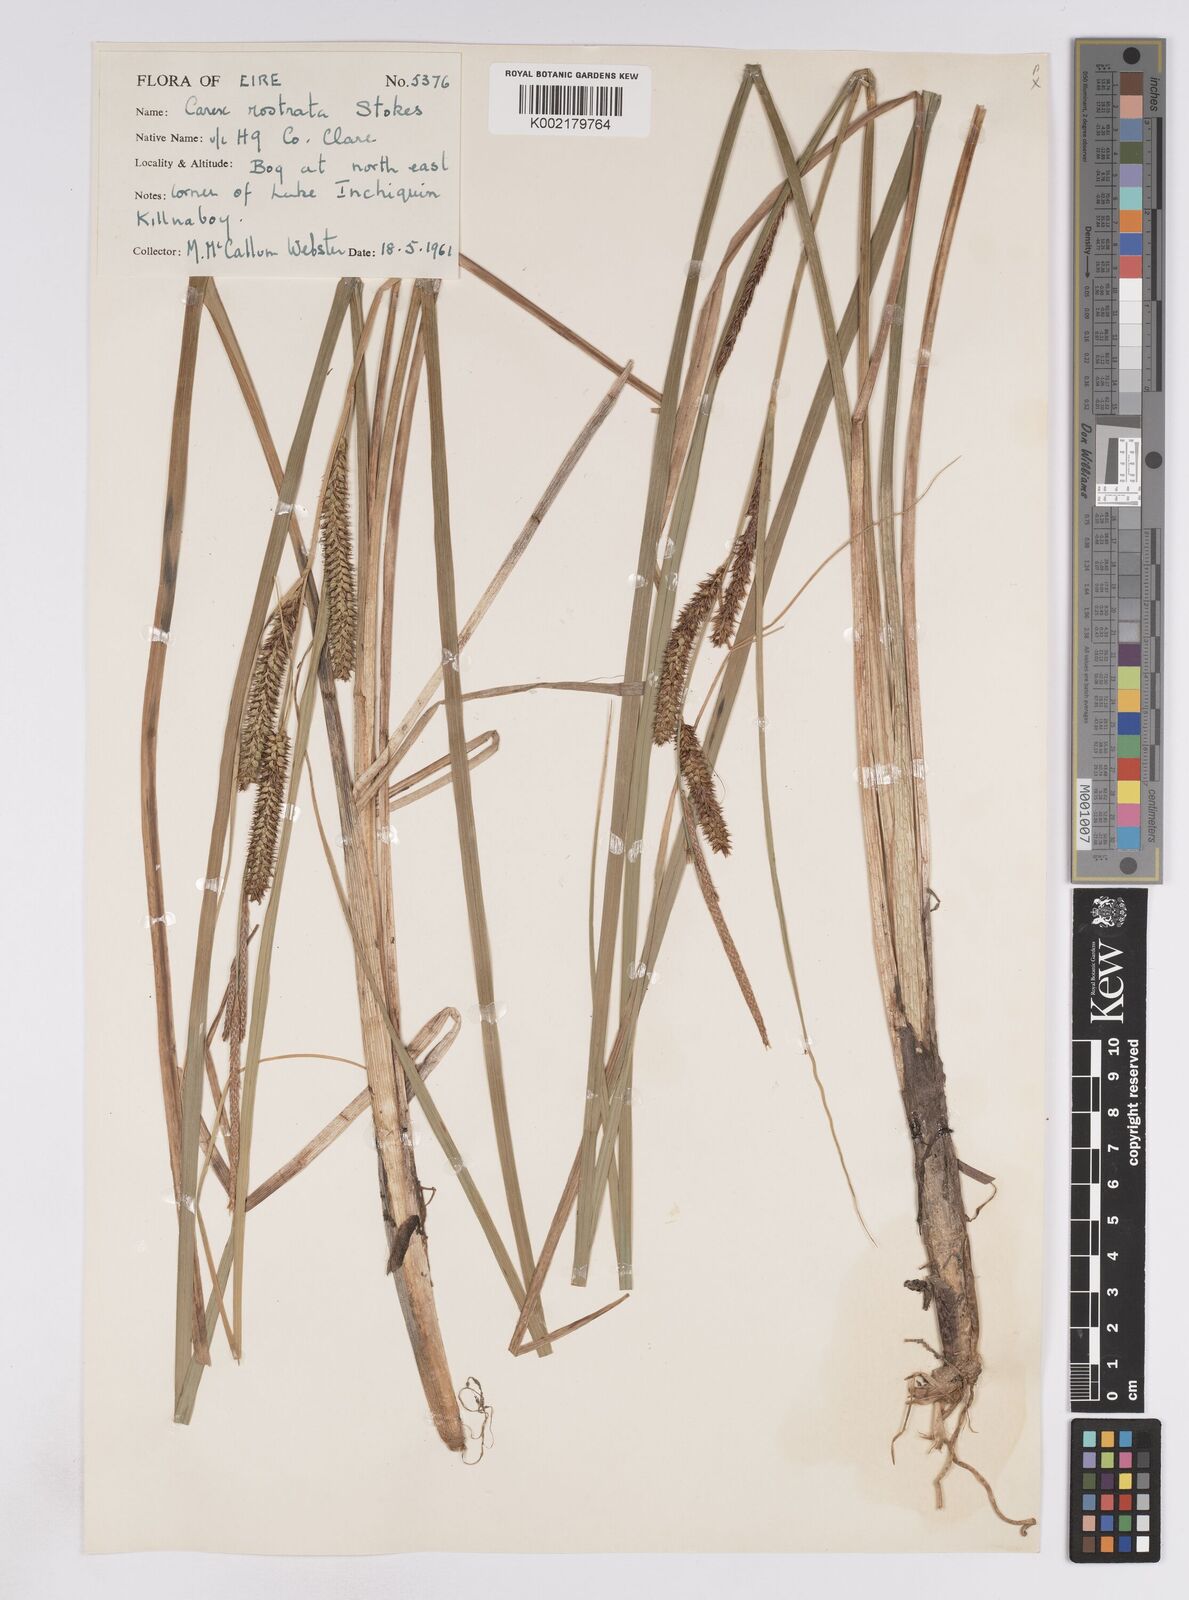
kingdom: Plantae
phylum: Tracheophyta
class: Liliopsida
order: Poales
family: Cyperaceae
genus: Carex
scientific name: Carex rostrata
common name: Bottle sedge
